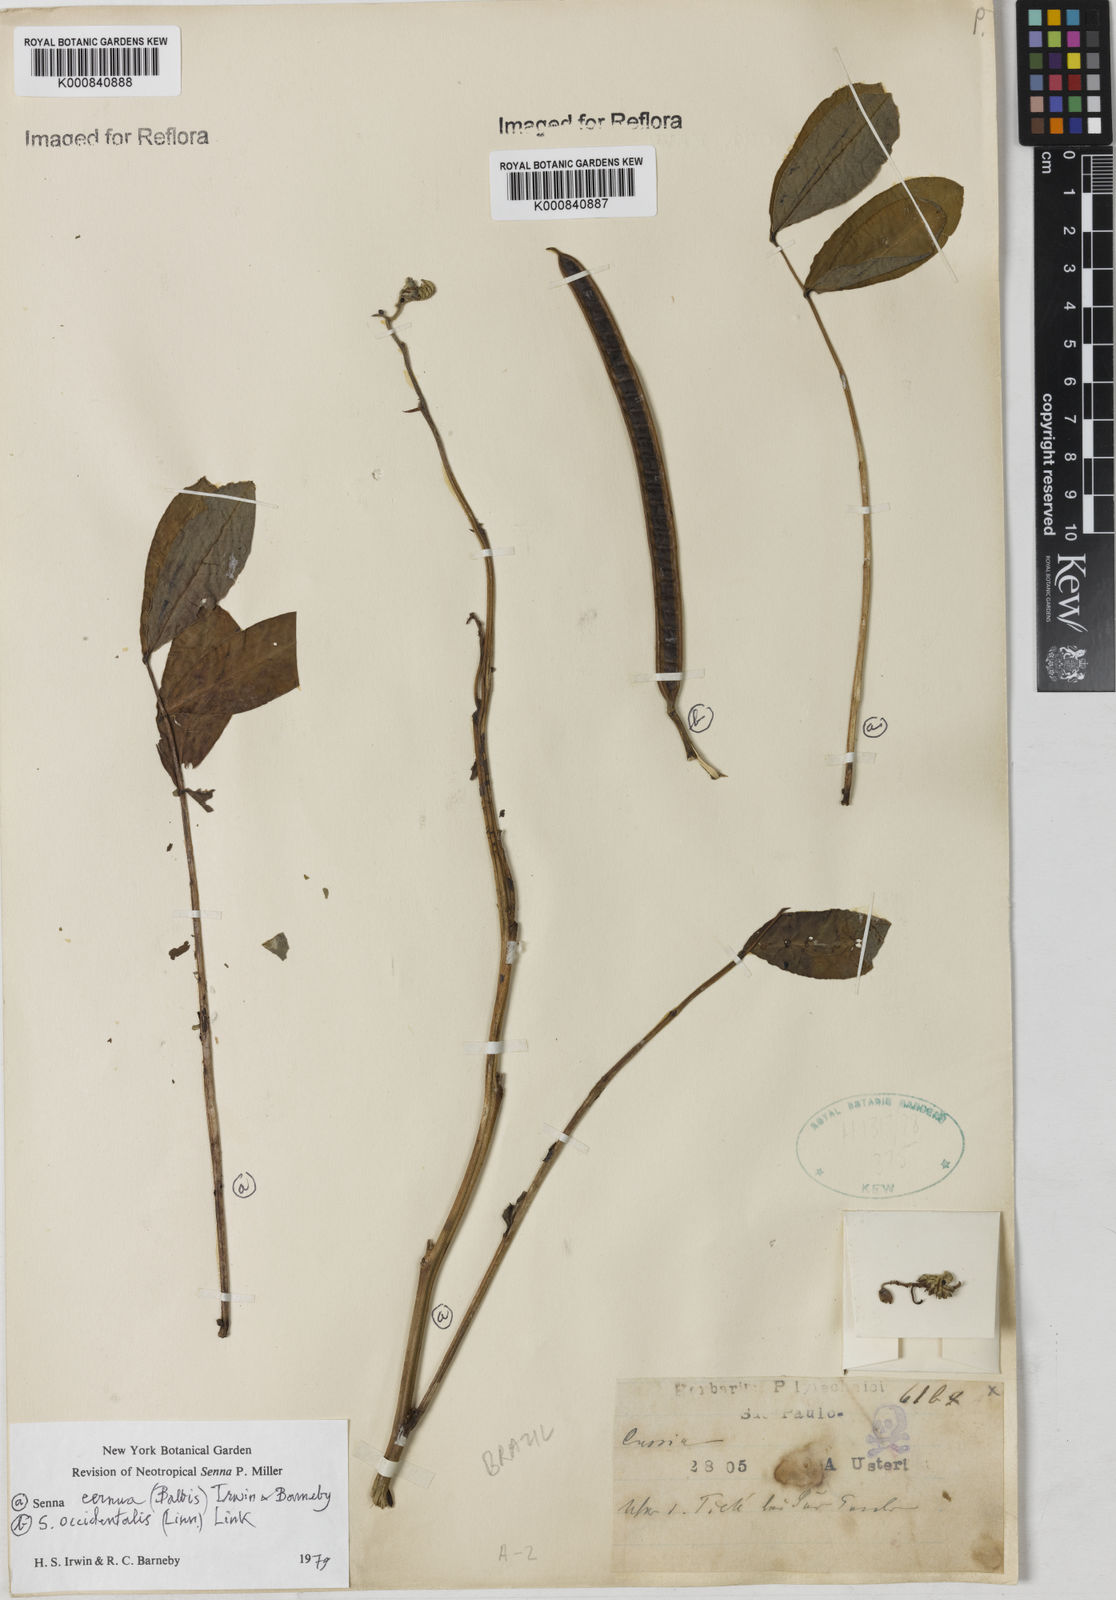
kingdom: Plantae
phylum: Tracheophyta
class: Magnoliopsida
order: Fabales
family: Fabaceae
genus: Senna
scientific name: Senna cernua
